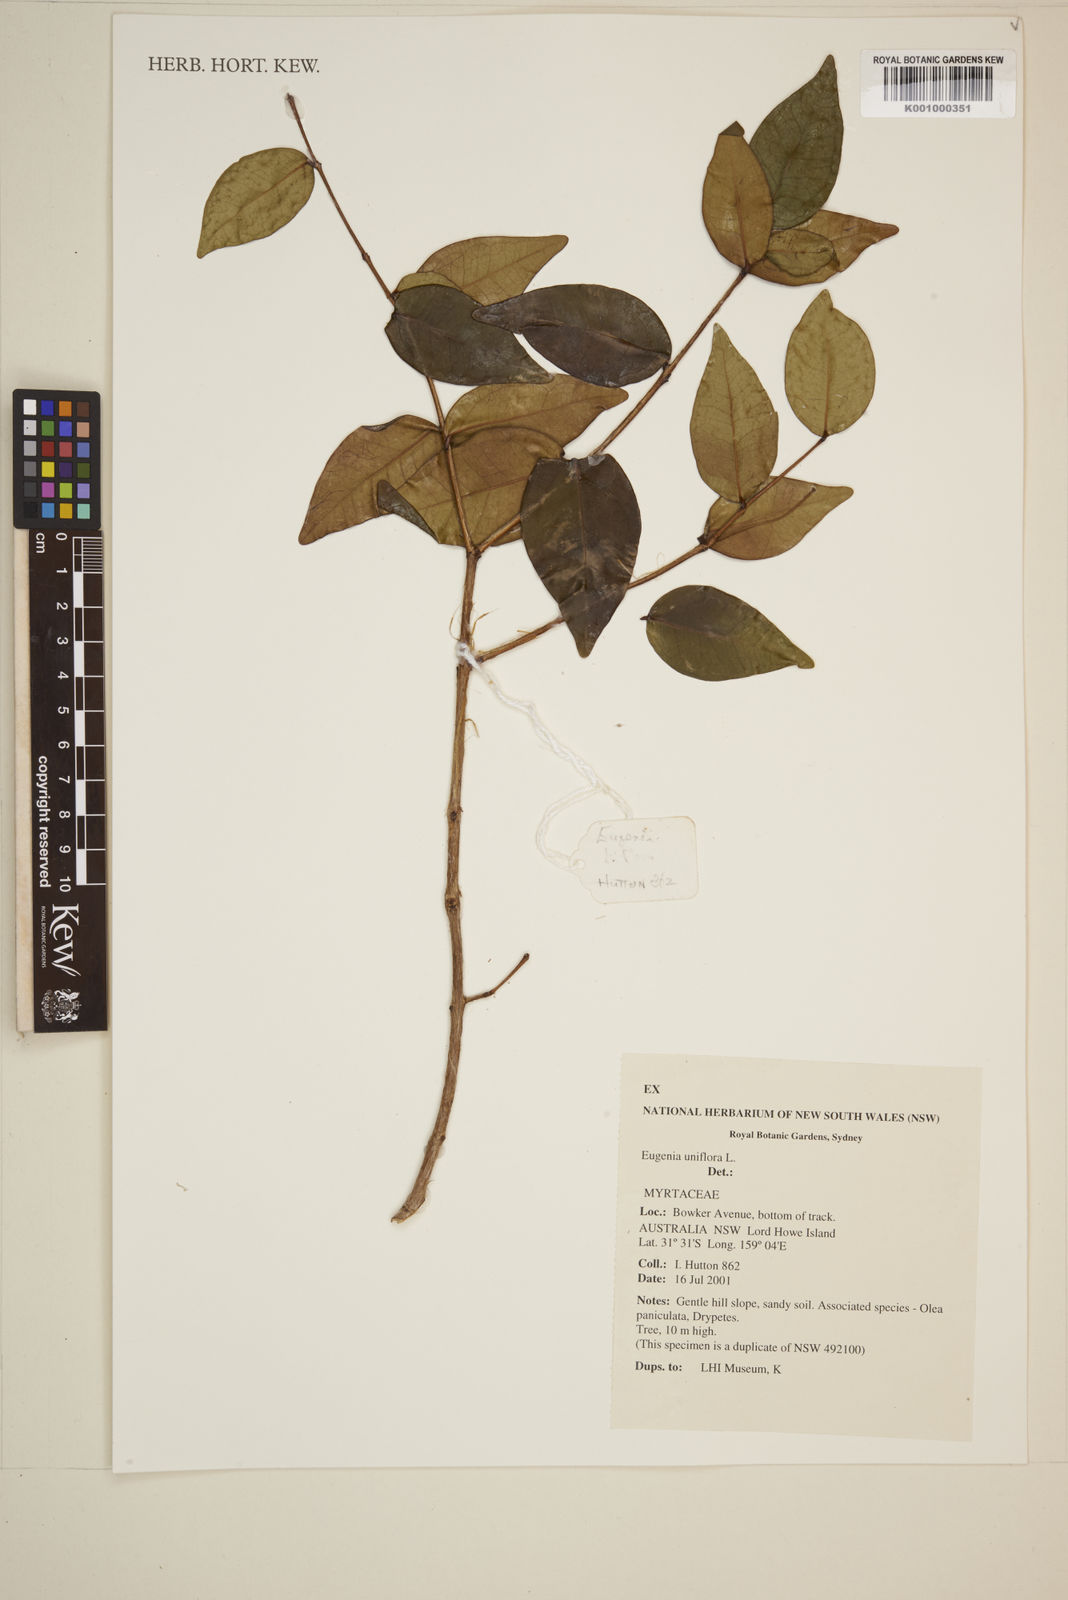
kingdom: Plantae
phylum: Tracheophyta
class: Magnoliopsida
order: Myrtales
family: Myrtaceae
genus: Eugenia
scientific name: Eugenia uniflora
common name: Surinam cherry
